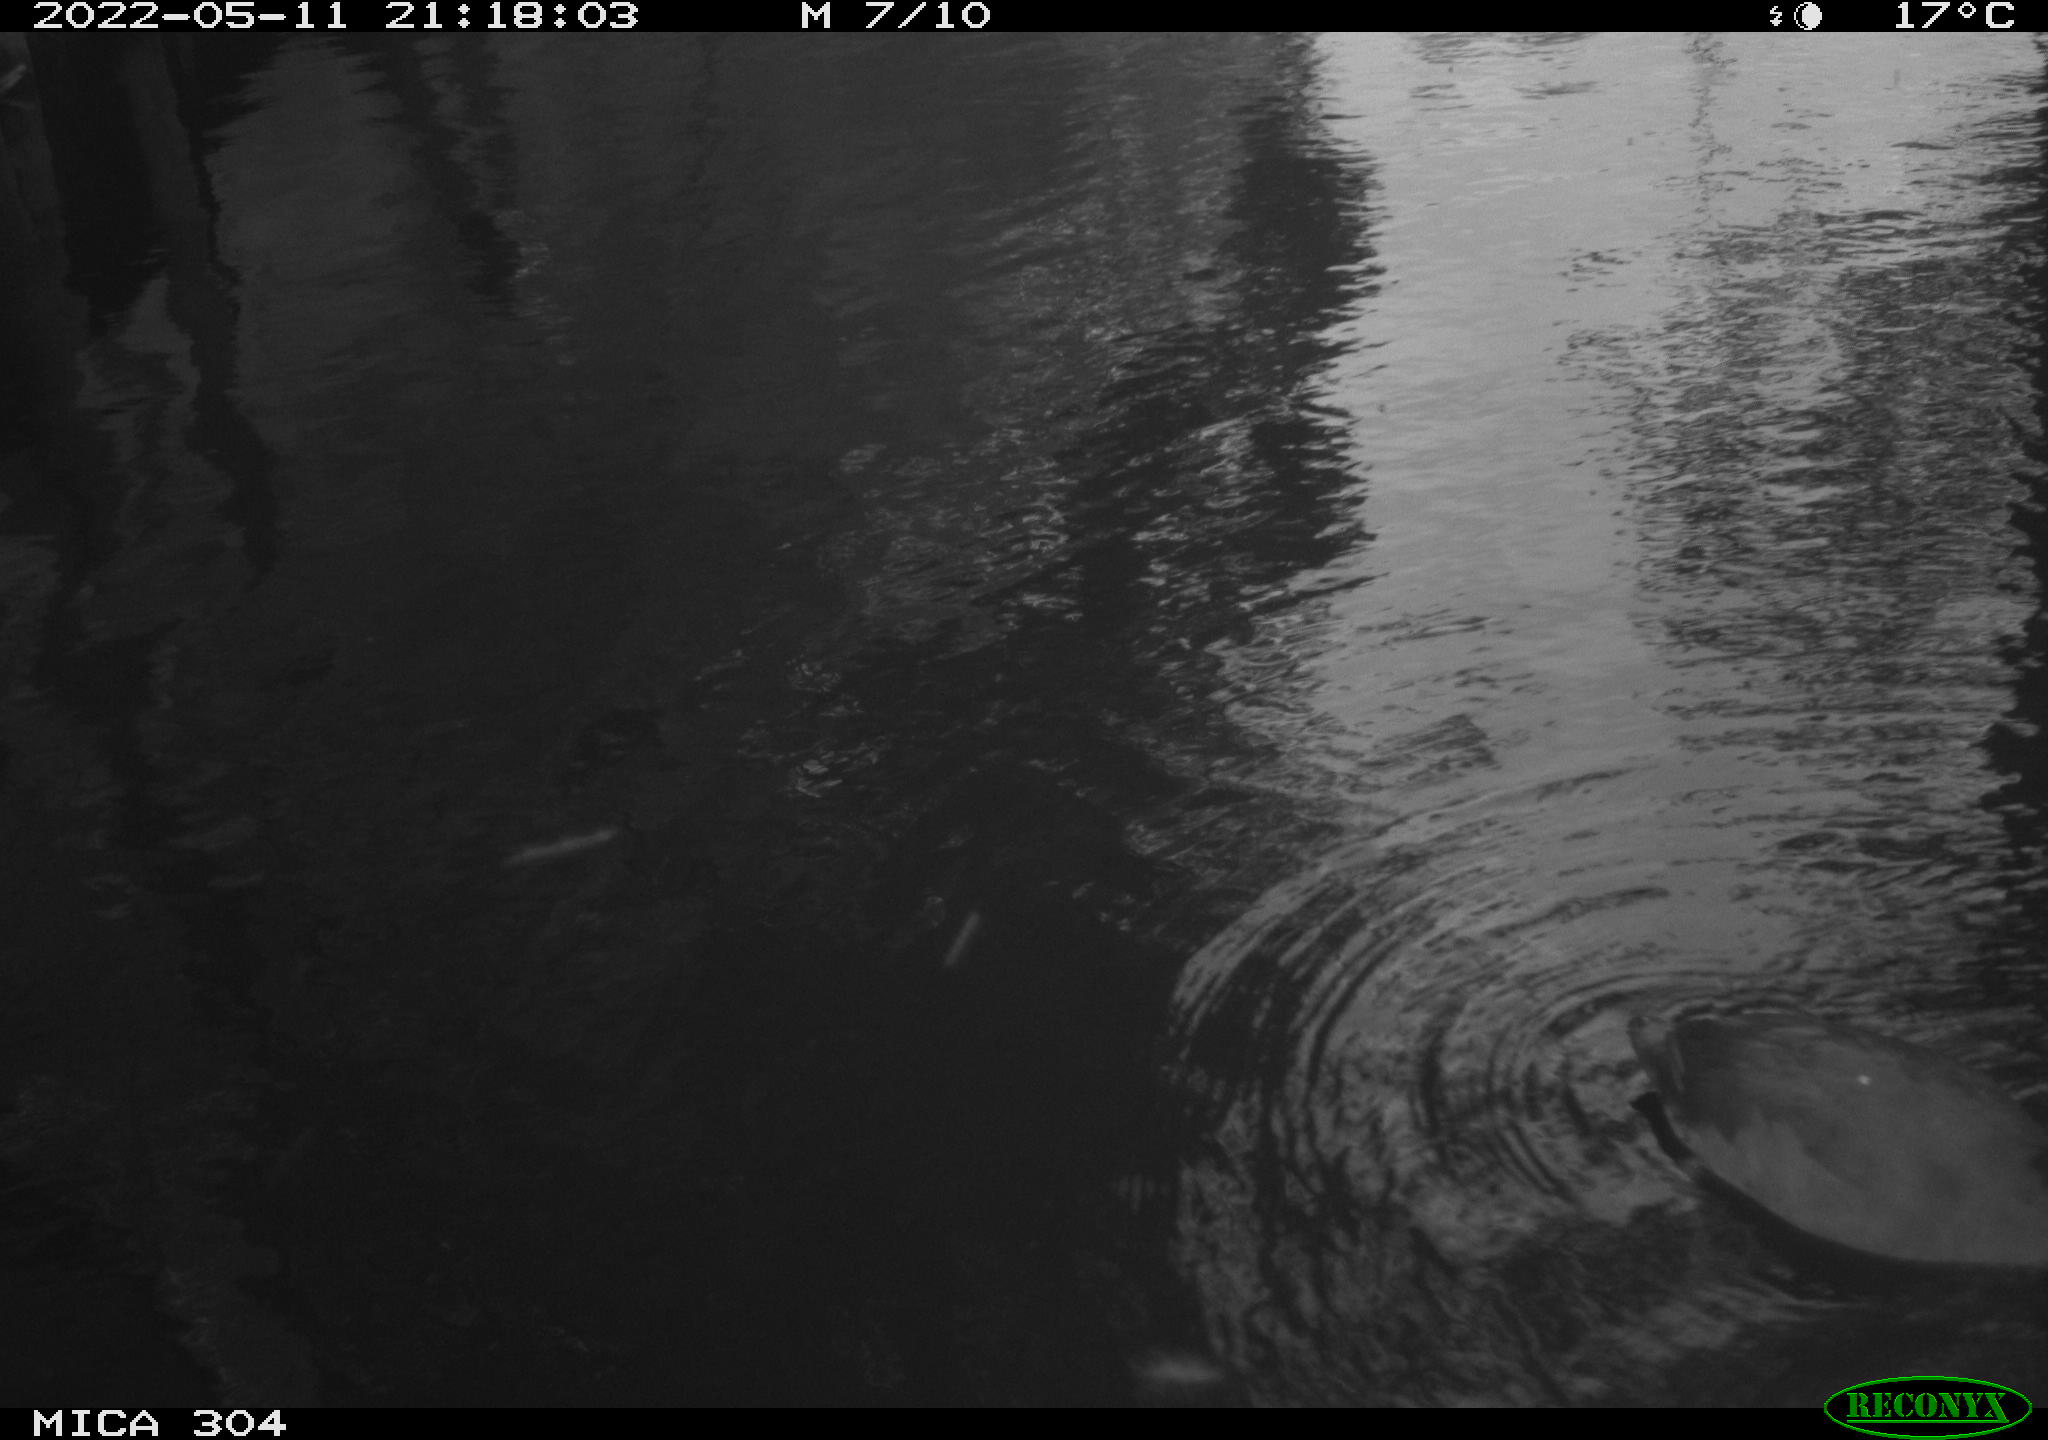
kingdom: Animalia
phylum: Chordata
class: Aves
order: Gruiformes
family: Rallidae
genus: Fulica
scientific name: Fulica atra
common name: Eurasian coot
